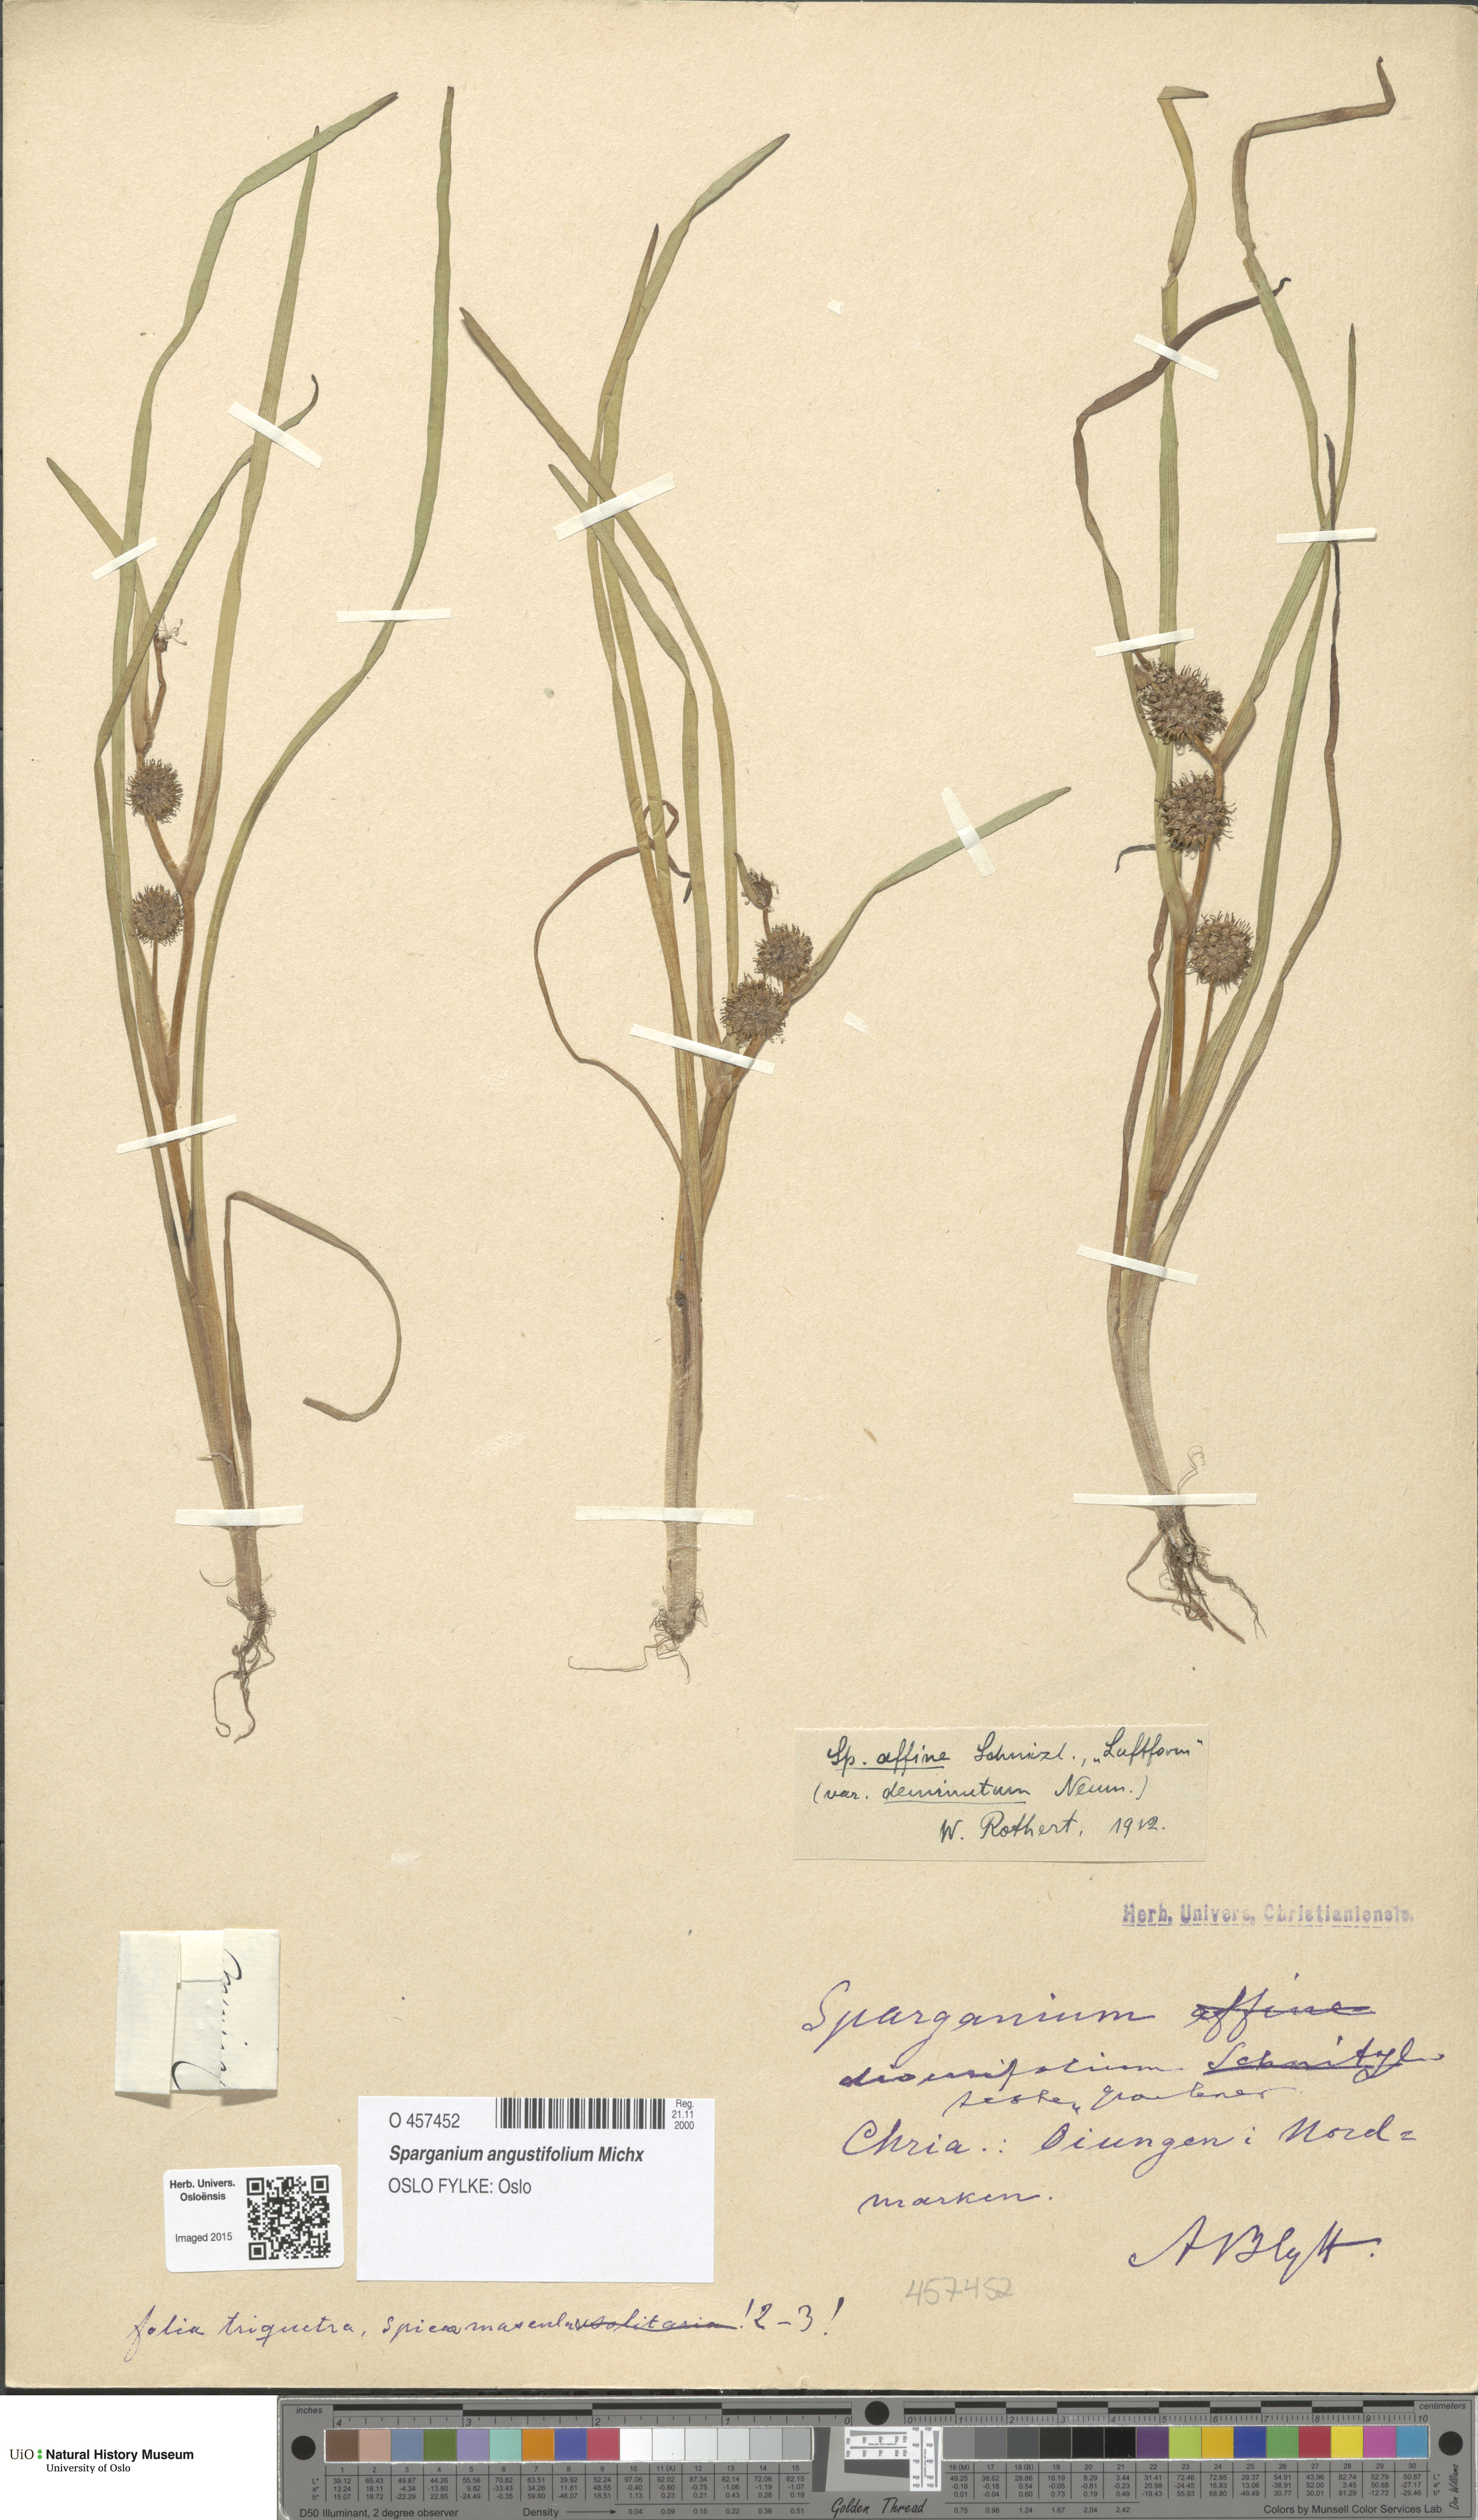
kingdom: Plantae
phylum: Tracheophyta
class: Liliopsida
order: Poales
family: Typhaceae
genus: Sparganium
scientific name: Sparganium angustifolium
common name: Floating bur-reed
